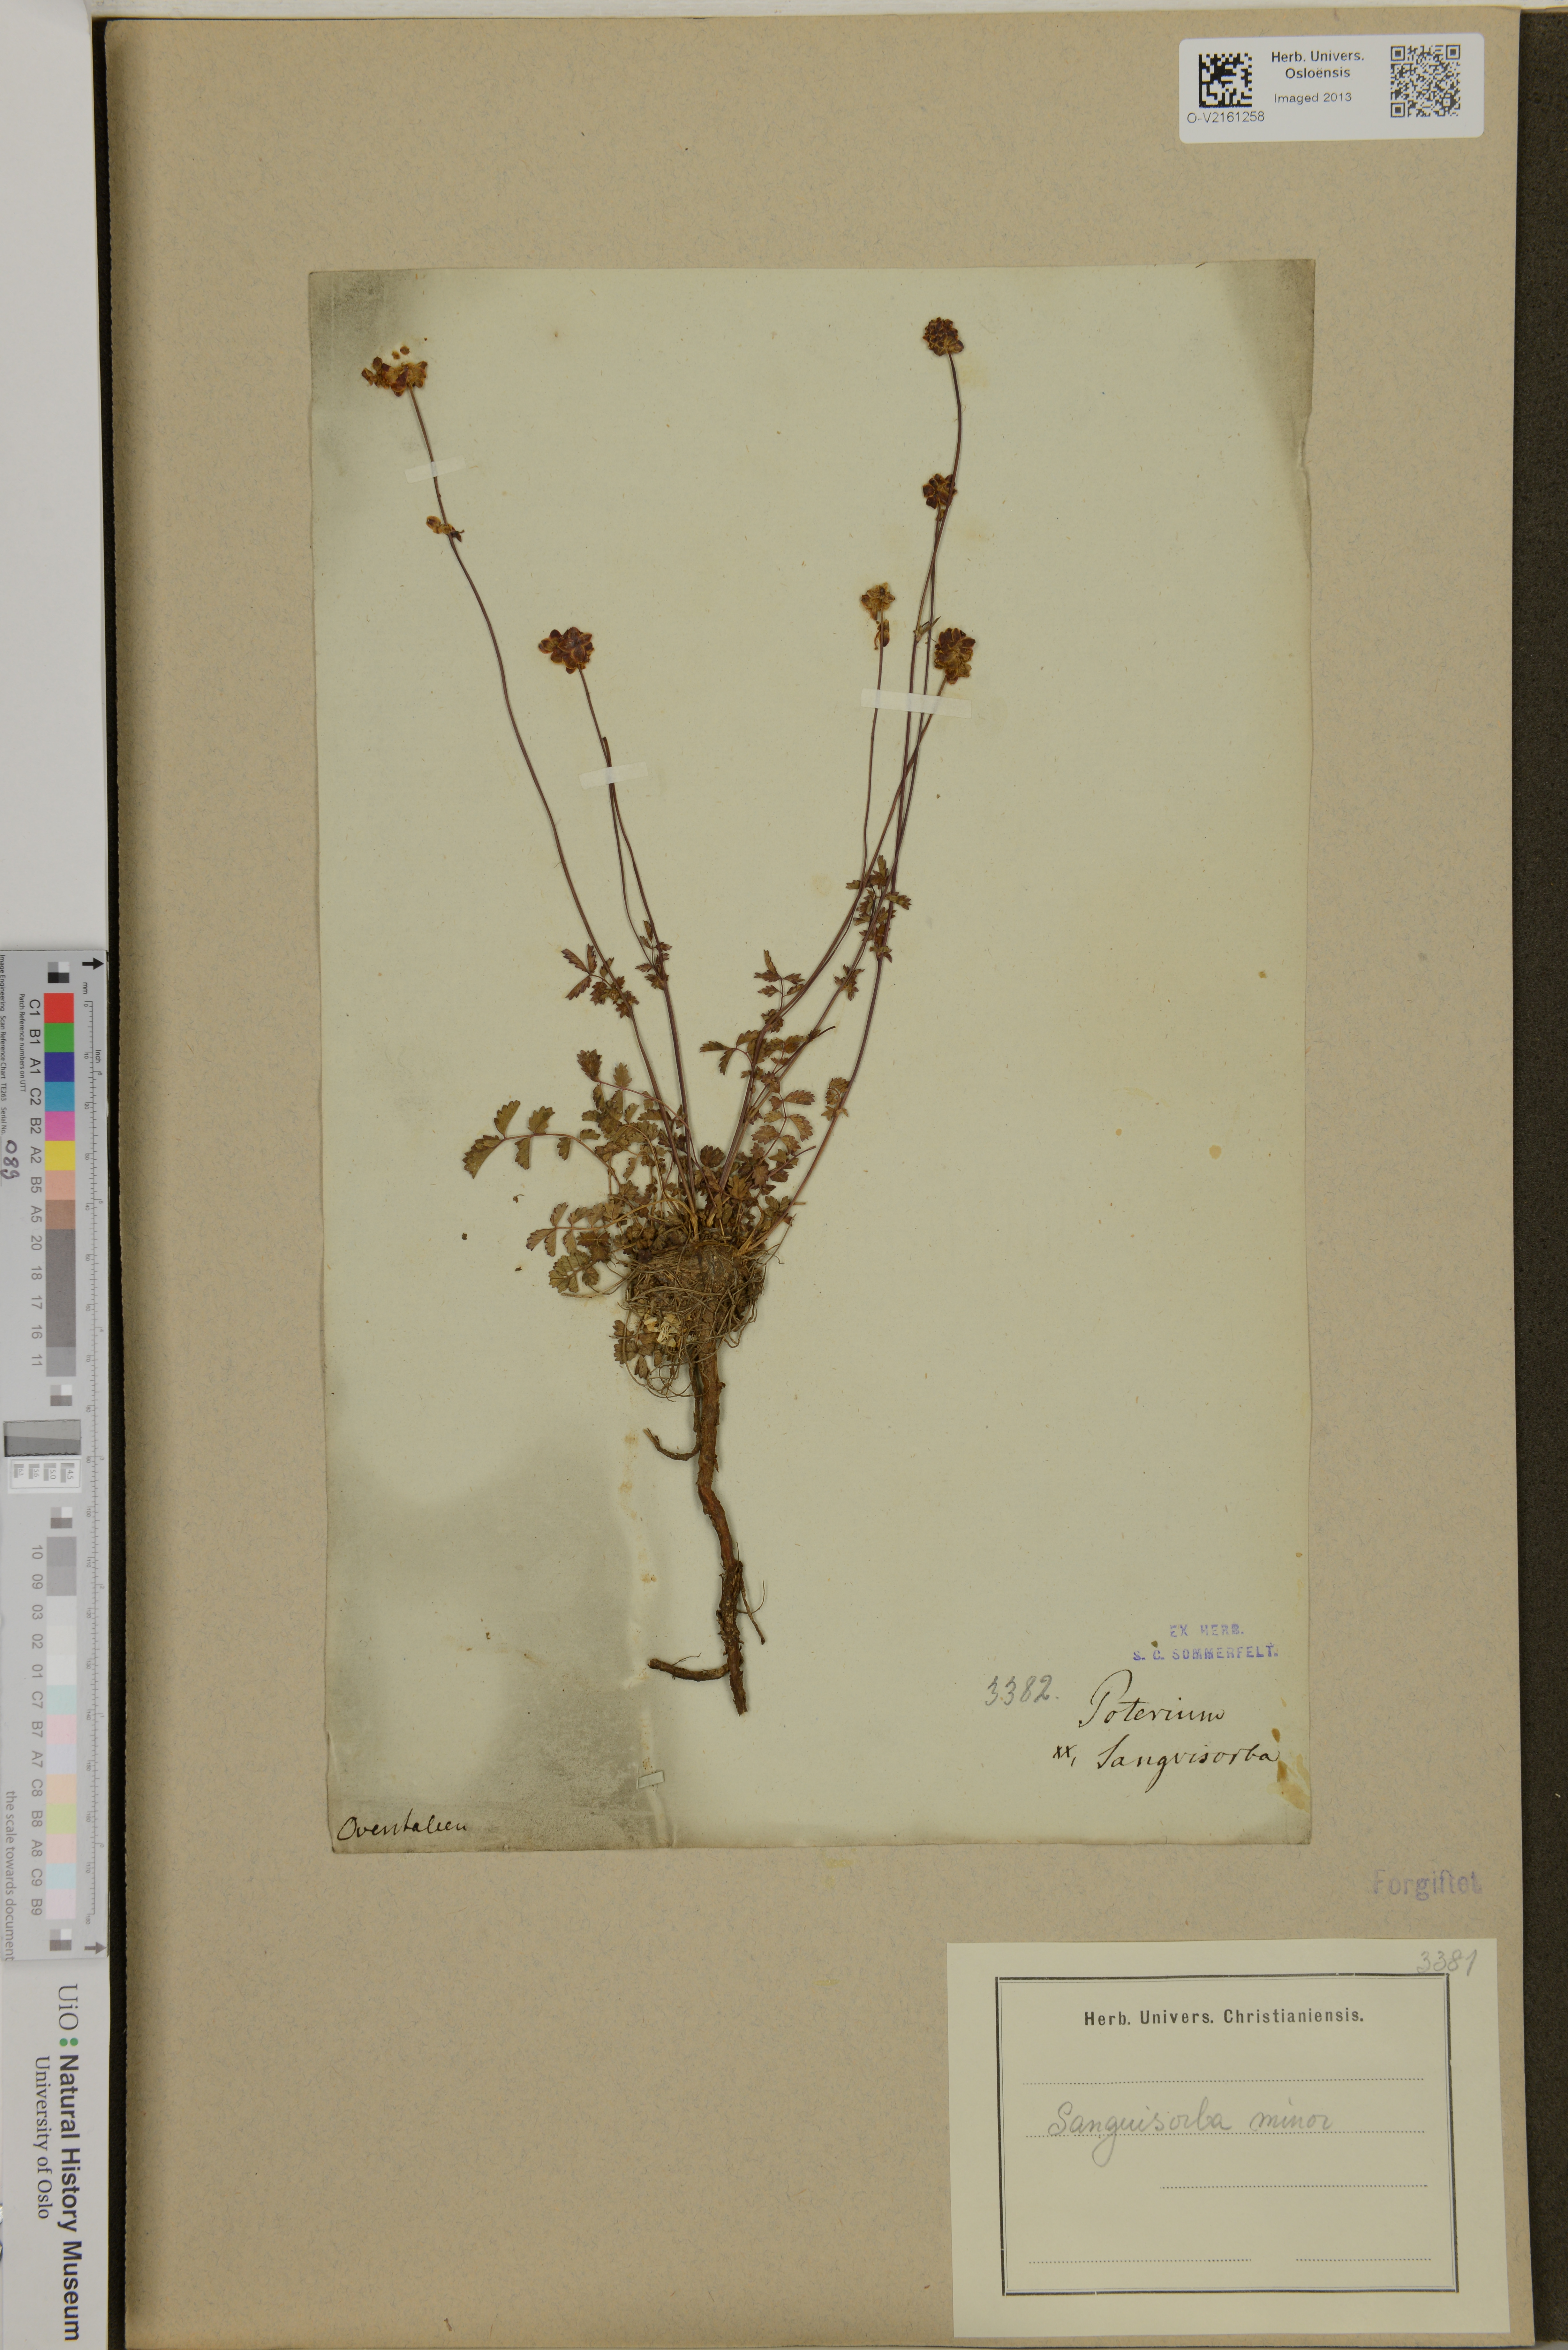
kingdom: Plantae
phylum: Tracheophyta
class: Magnoliopsida
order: Rosales
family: Rosaceae
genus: Poterium
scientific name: Poterium sanguisorba
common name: Salad burnet
